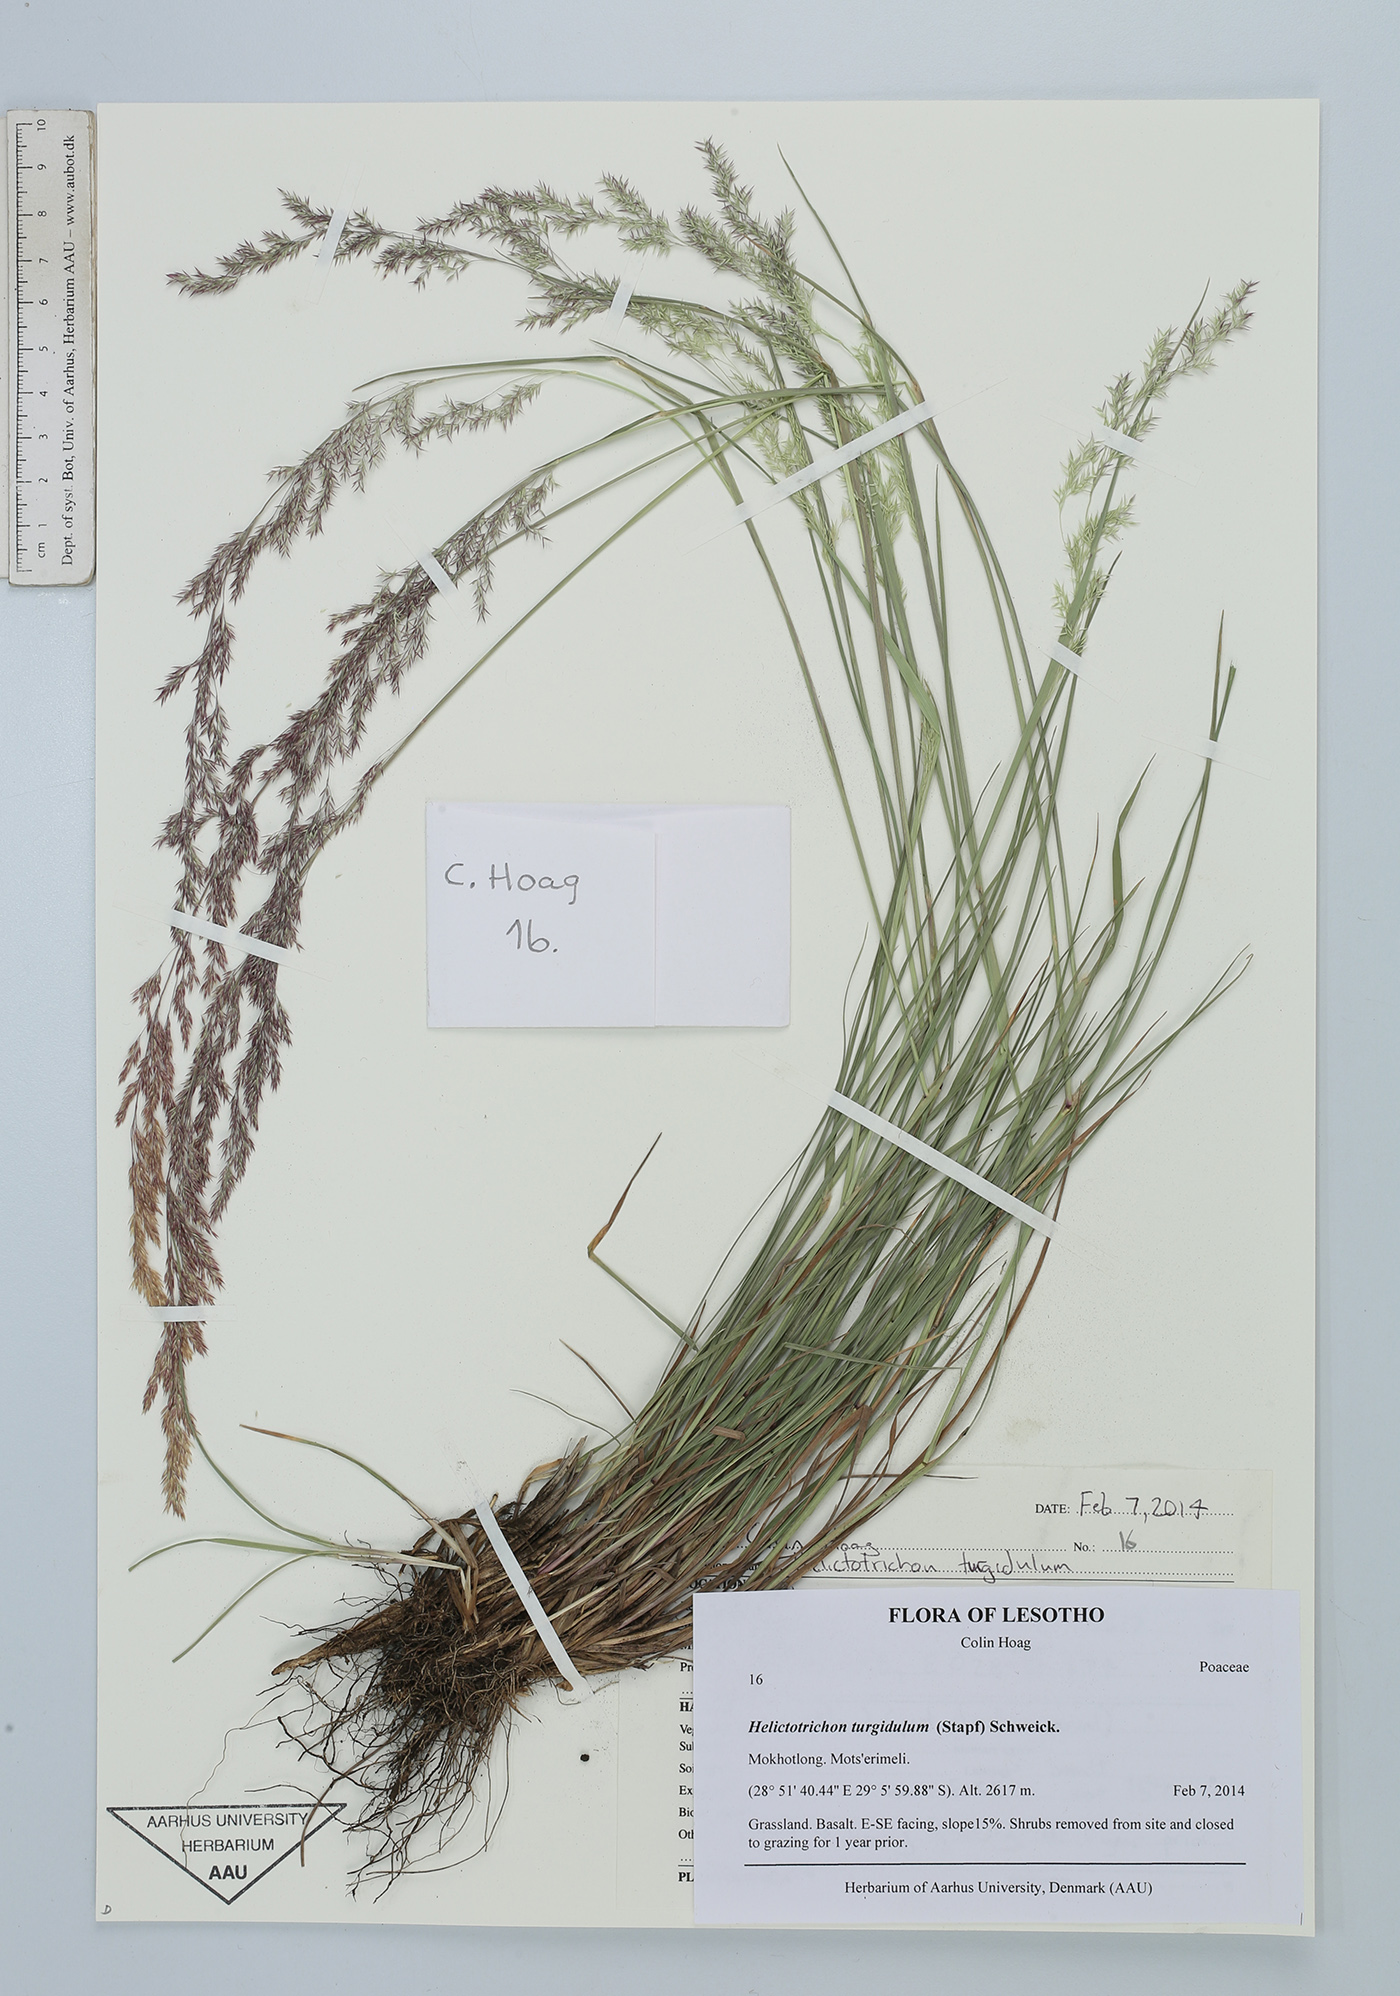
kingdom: Plantae
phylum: Tracheophyta
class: Liliopsida
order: Poales
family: Poaceae
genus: Trisetopsis
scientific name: Trisetopsis imberbis
